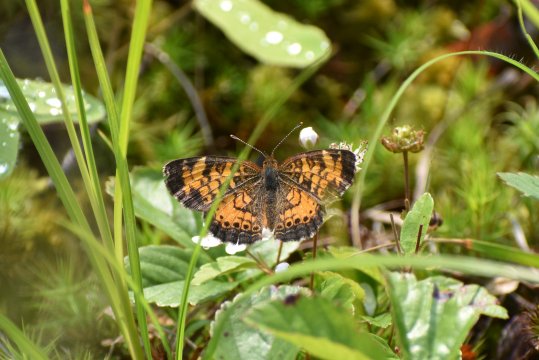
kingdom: Animalia
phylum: Arthropoda
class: Insecta
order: Lepidoptera
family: Nymphalidae
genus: Phyciodes
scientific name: Phyciodes tharos
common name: Northern Crescent
